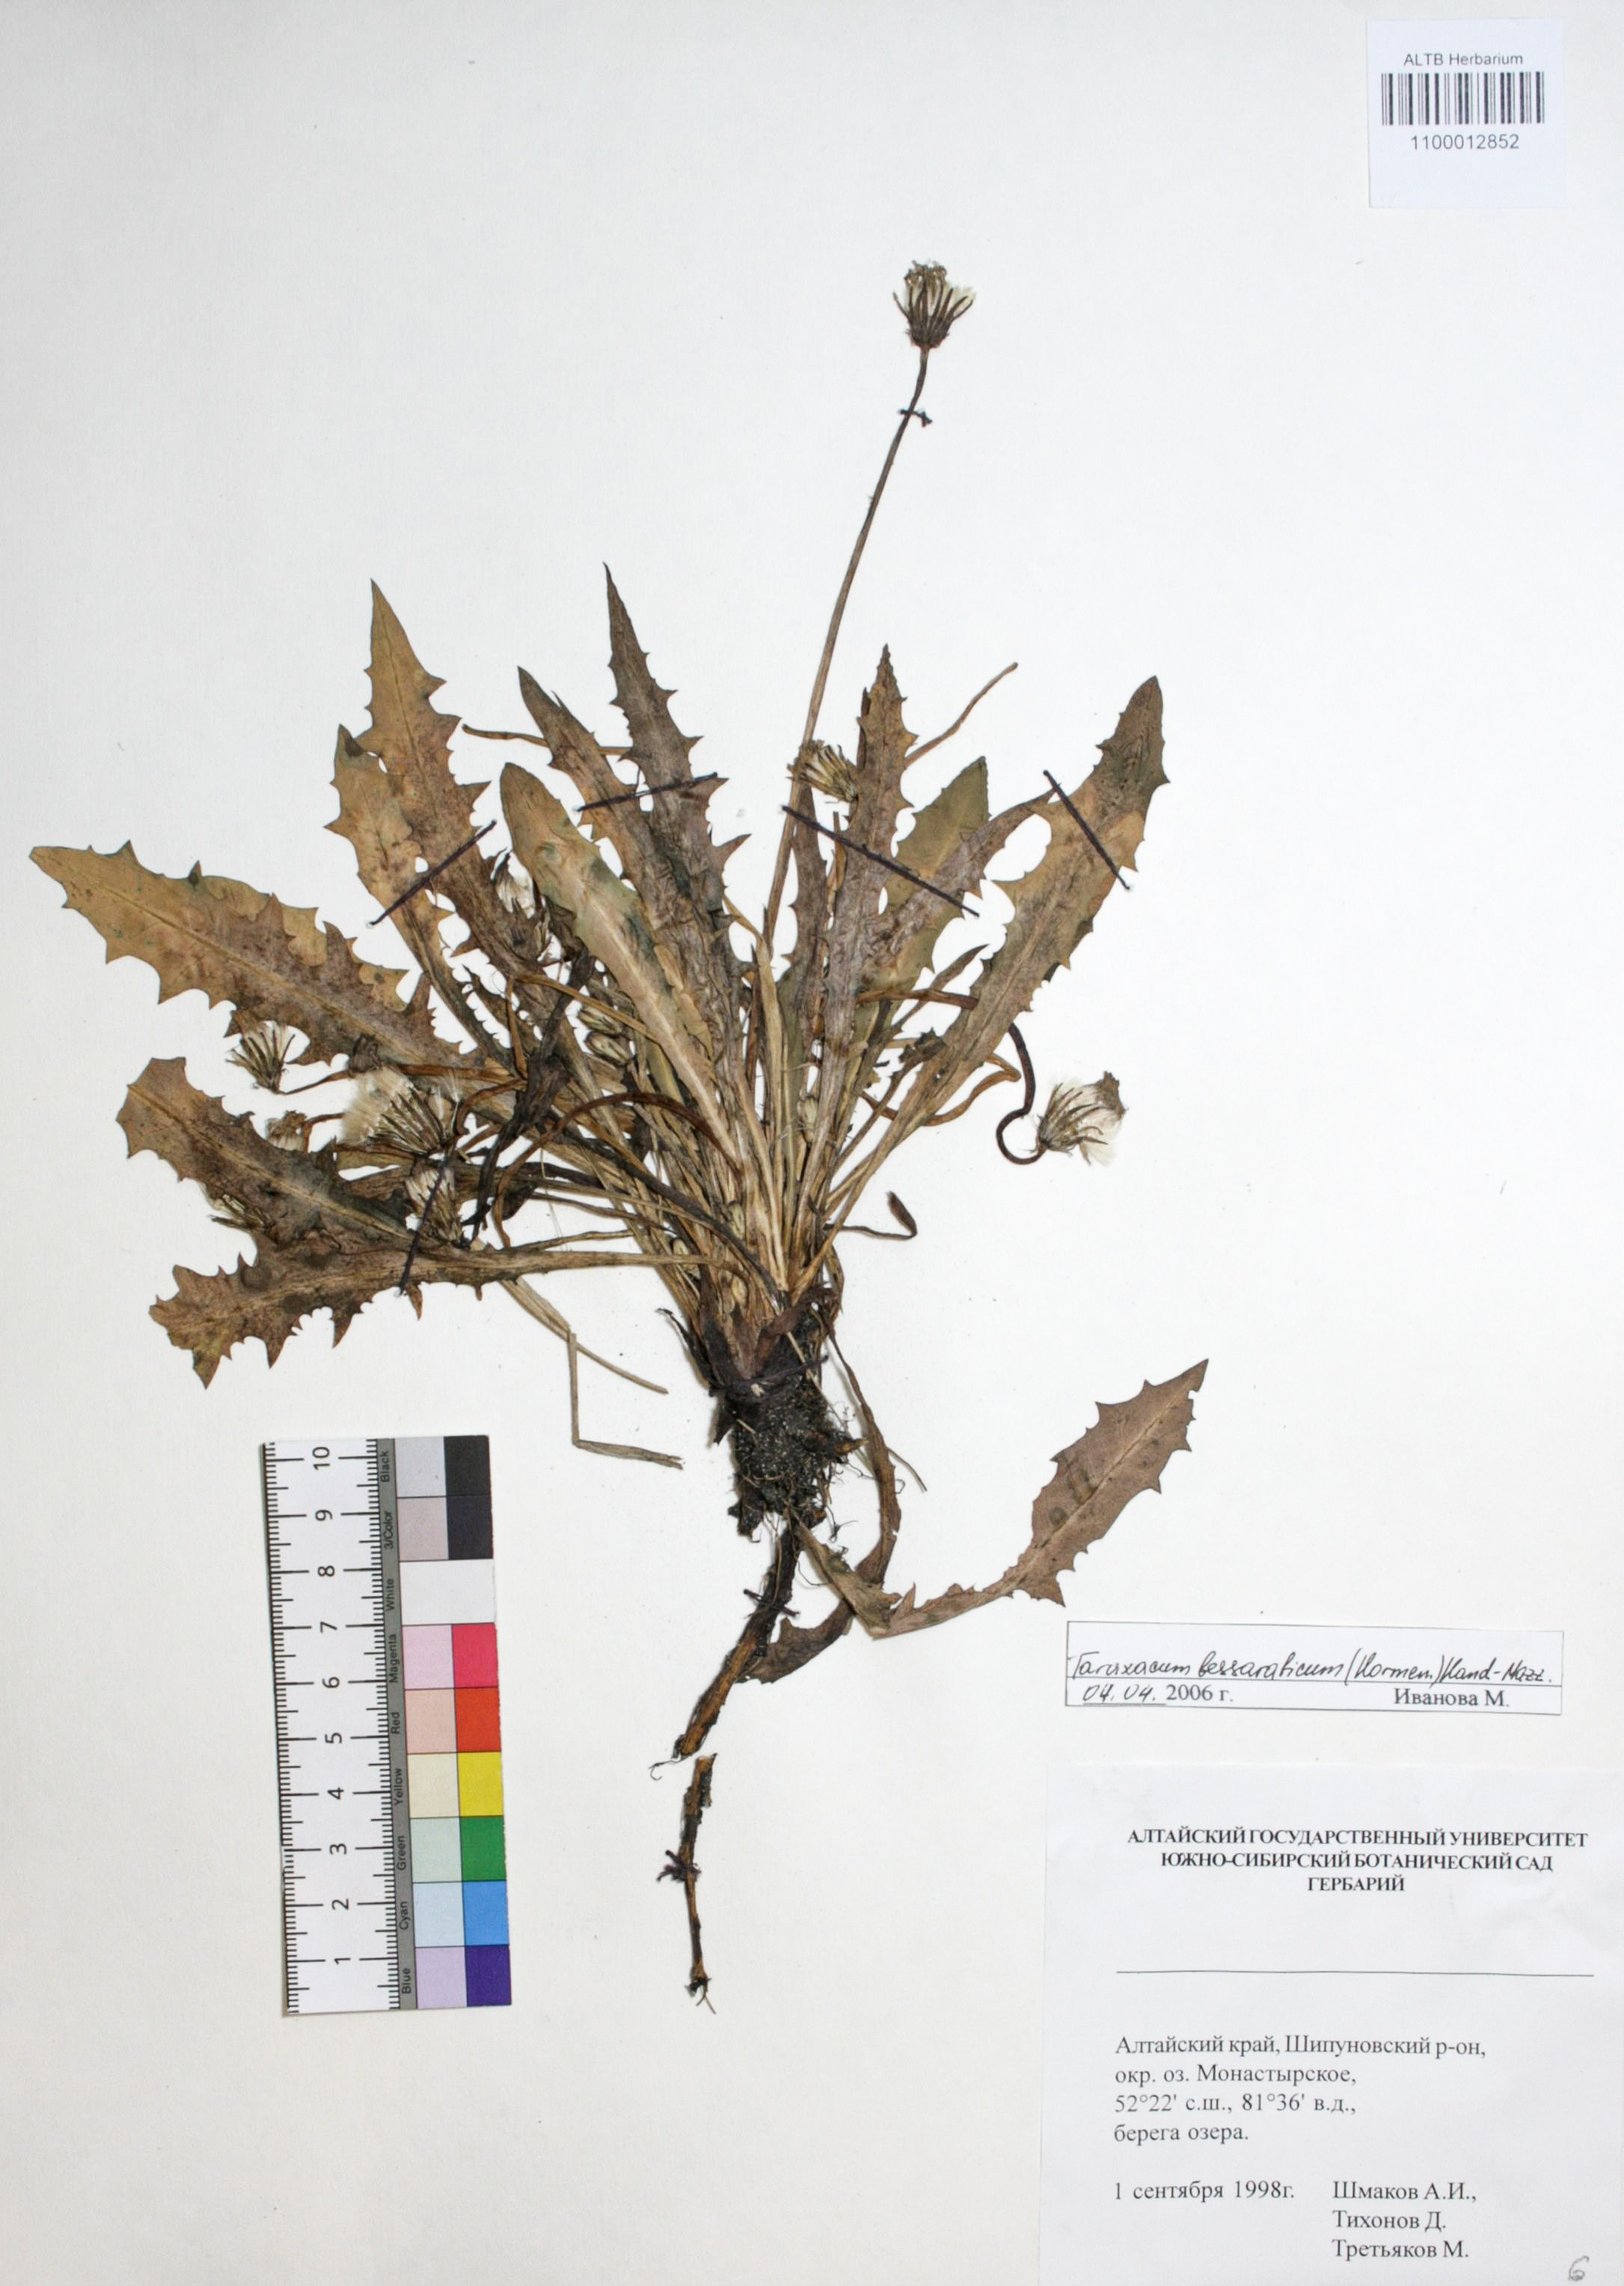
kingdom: Plantae
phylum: Tracheophyta
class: Magnoliopsida
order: Asterales
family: Asteraceae
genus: Taraxacum
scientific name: Taraxacum bessarabicum
